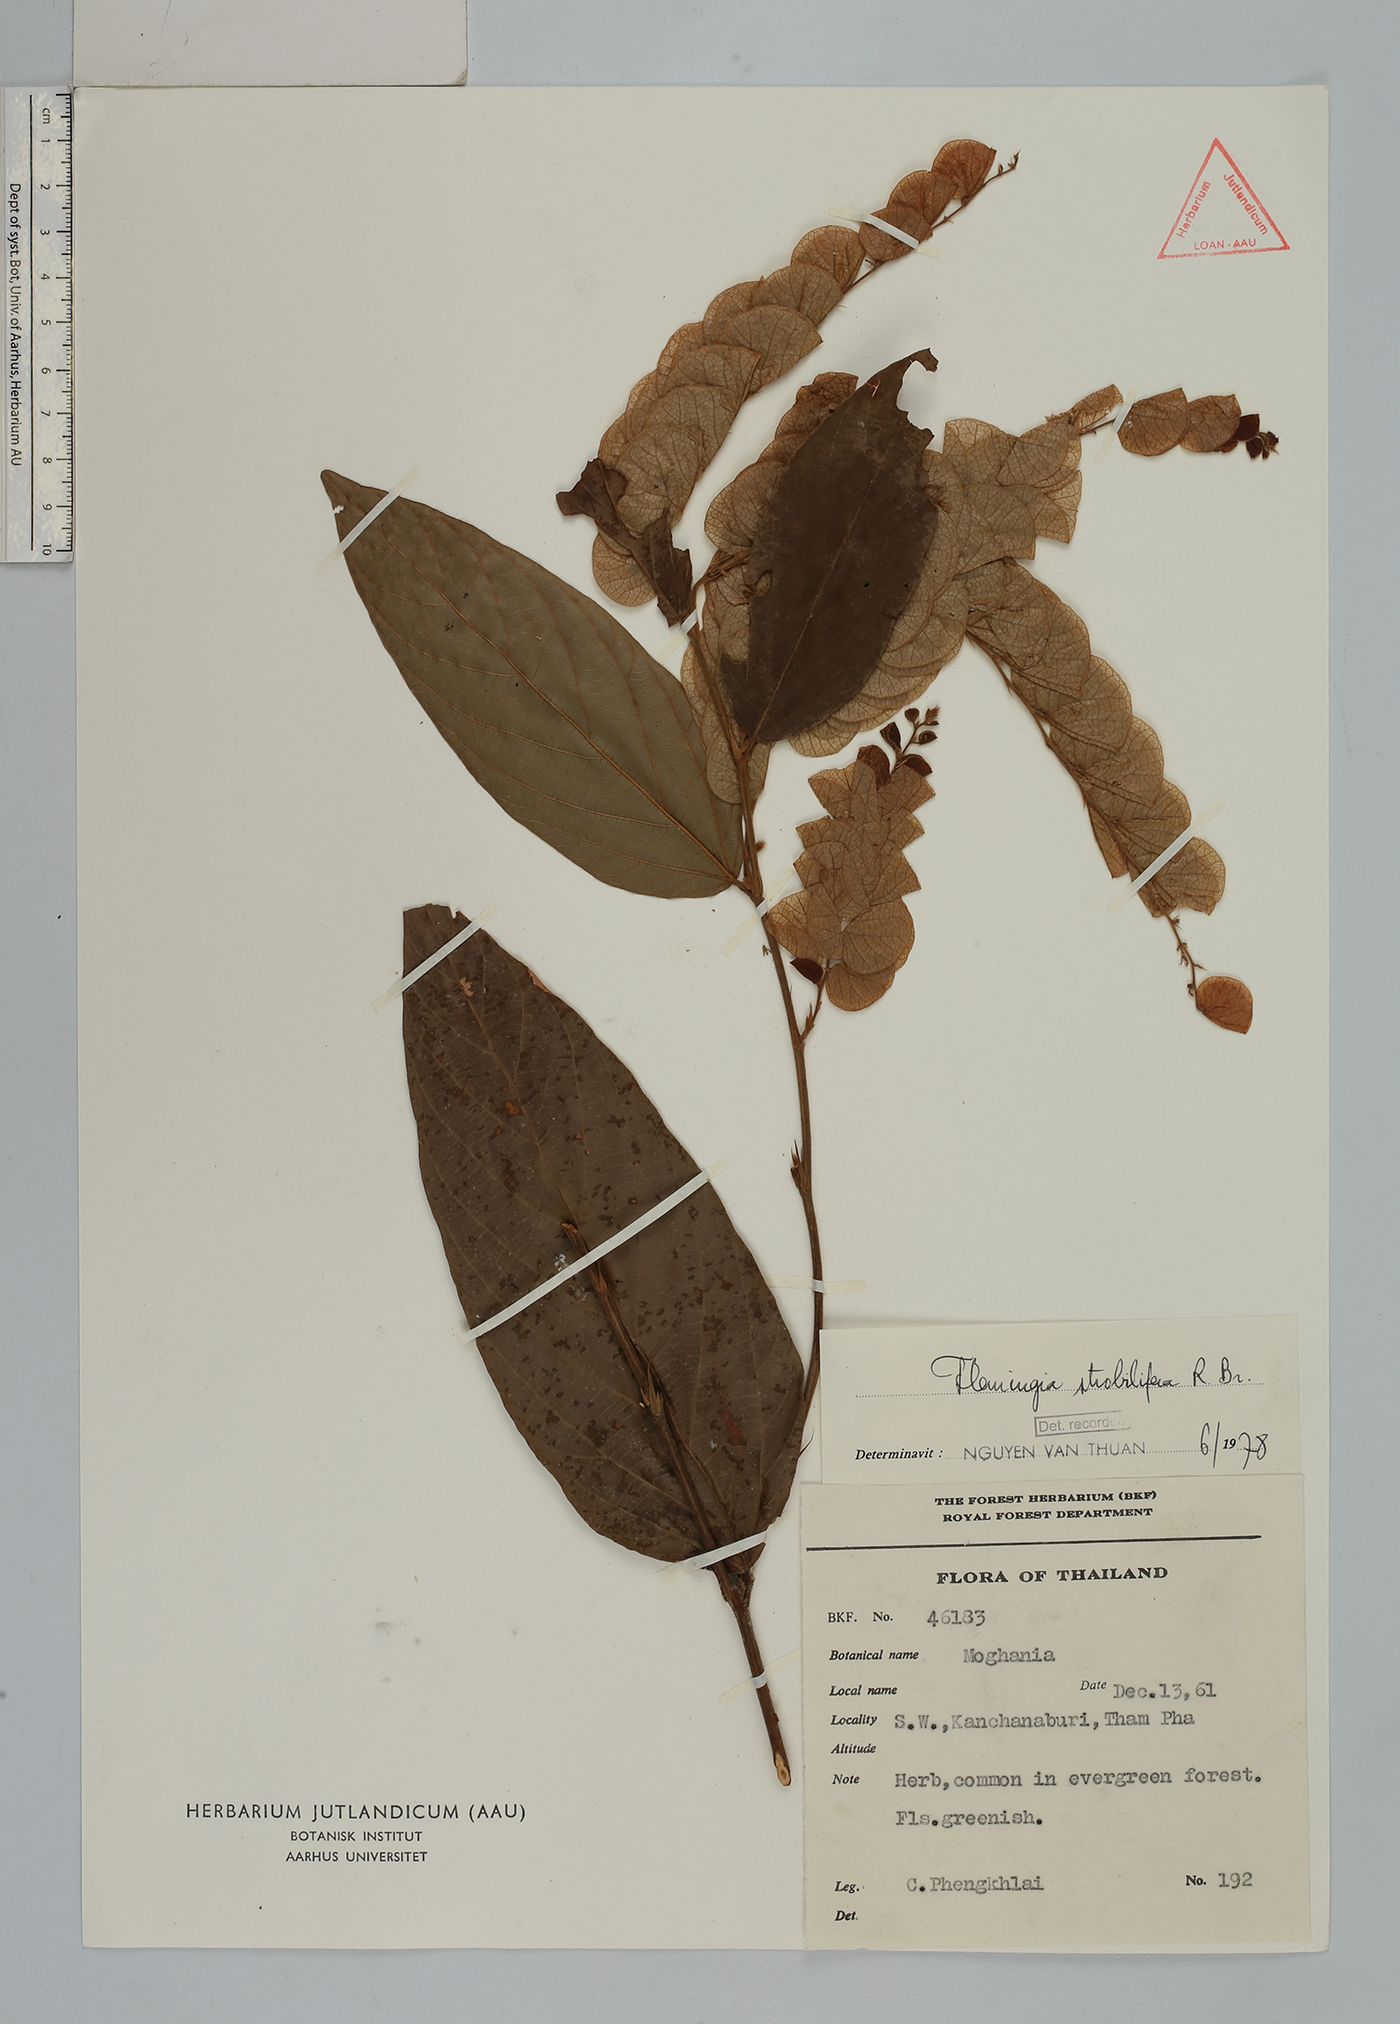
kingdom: Plantae
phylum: Tracheophyta
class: Magnoliopsida
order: Fabales
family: Fabaceae
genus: Flemingia
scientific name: Flemingia strobilifera
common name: Wild hops
